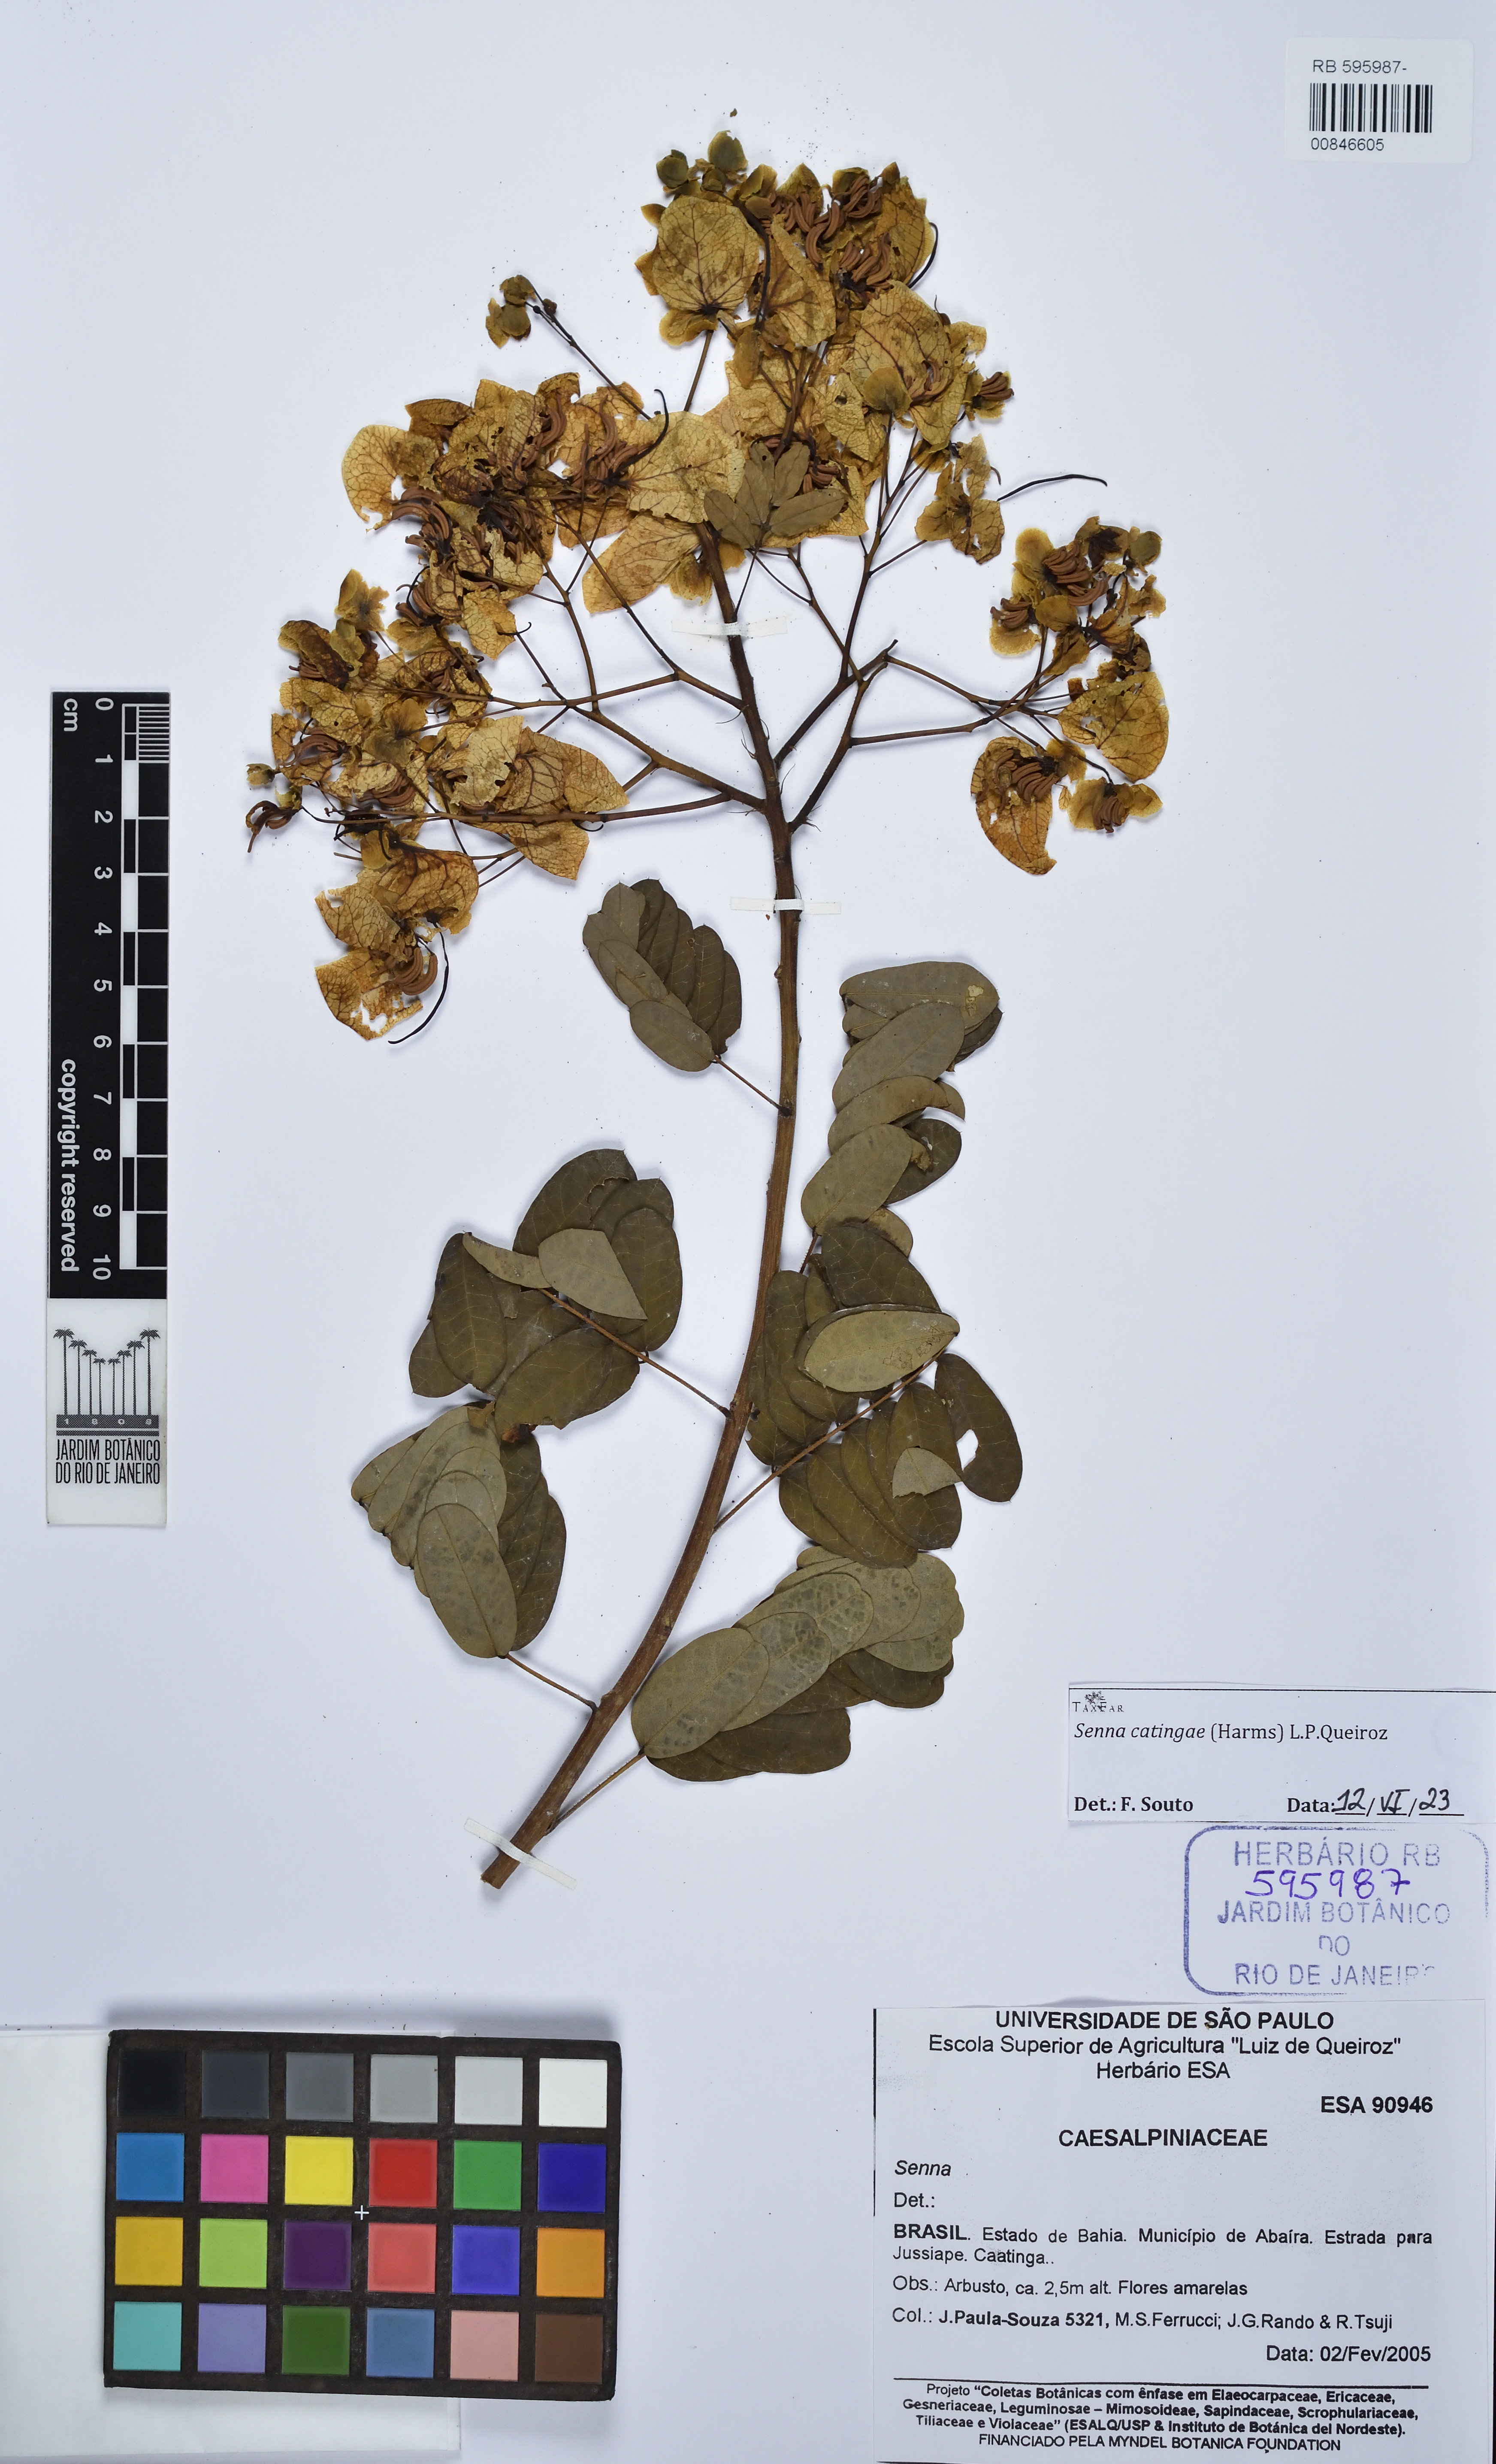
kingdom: Plantae
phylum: Tracheophyta
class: Magnoliopsida
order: Fabales
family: Fabaceae
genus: Senna
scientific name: Senna catingae
